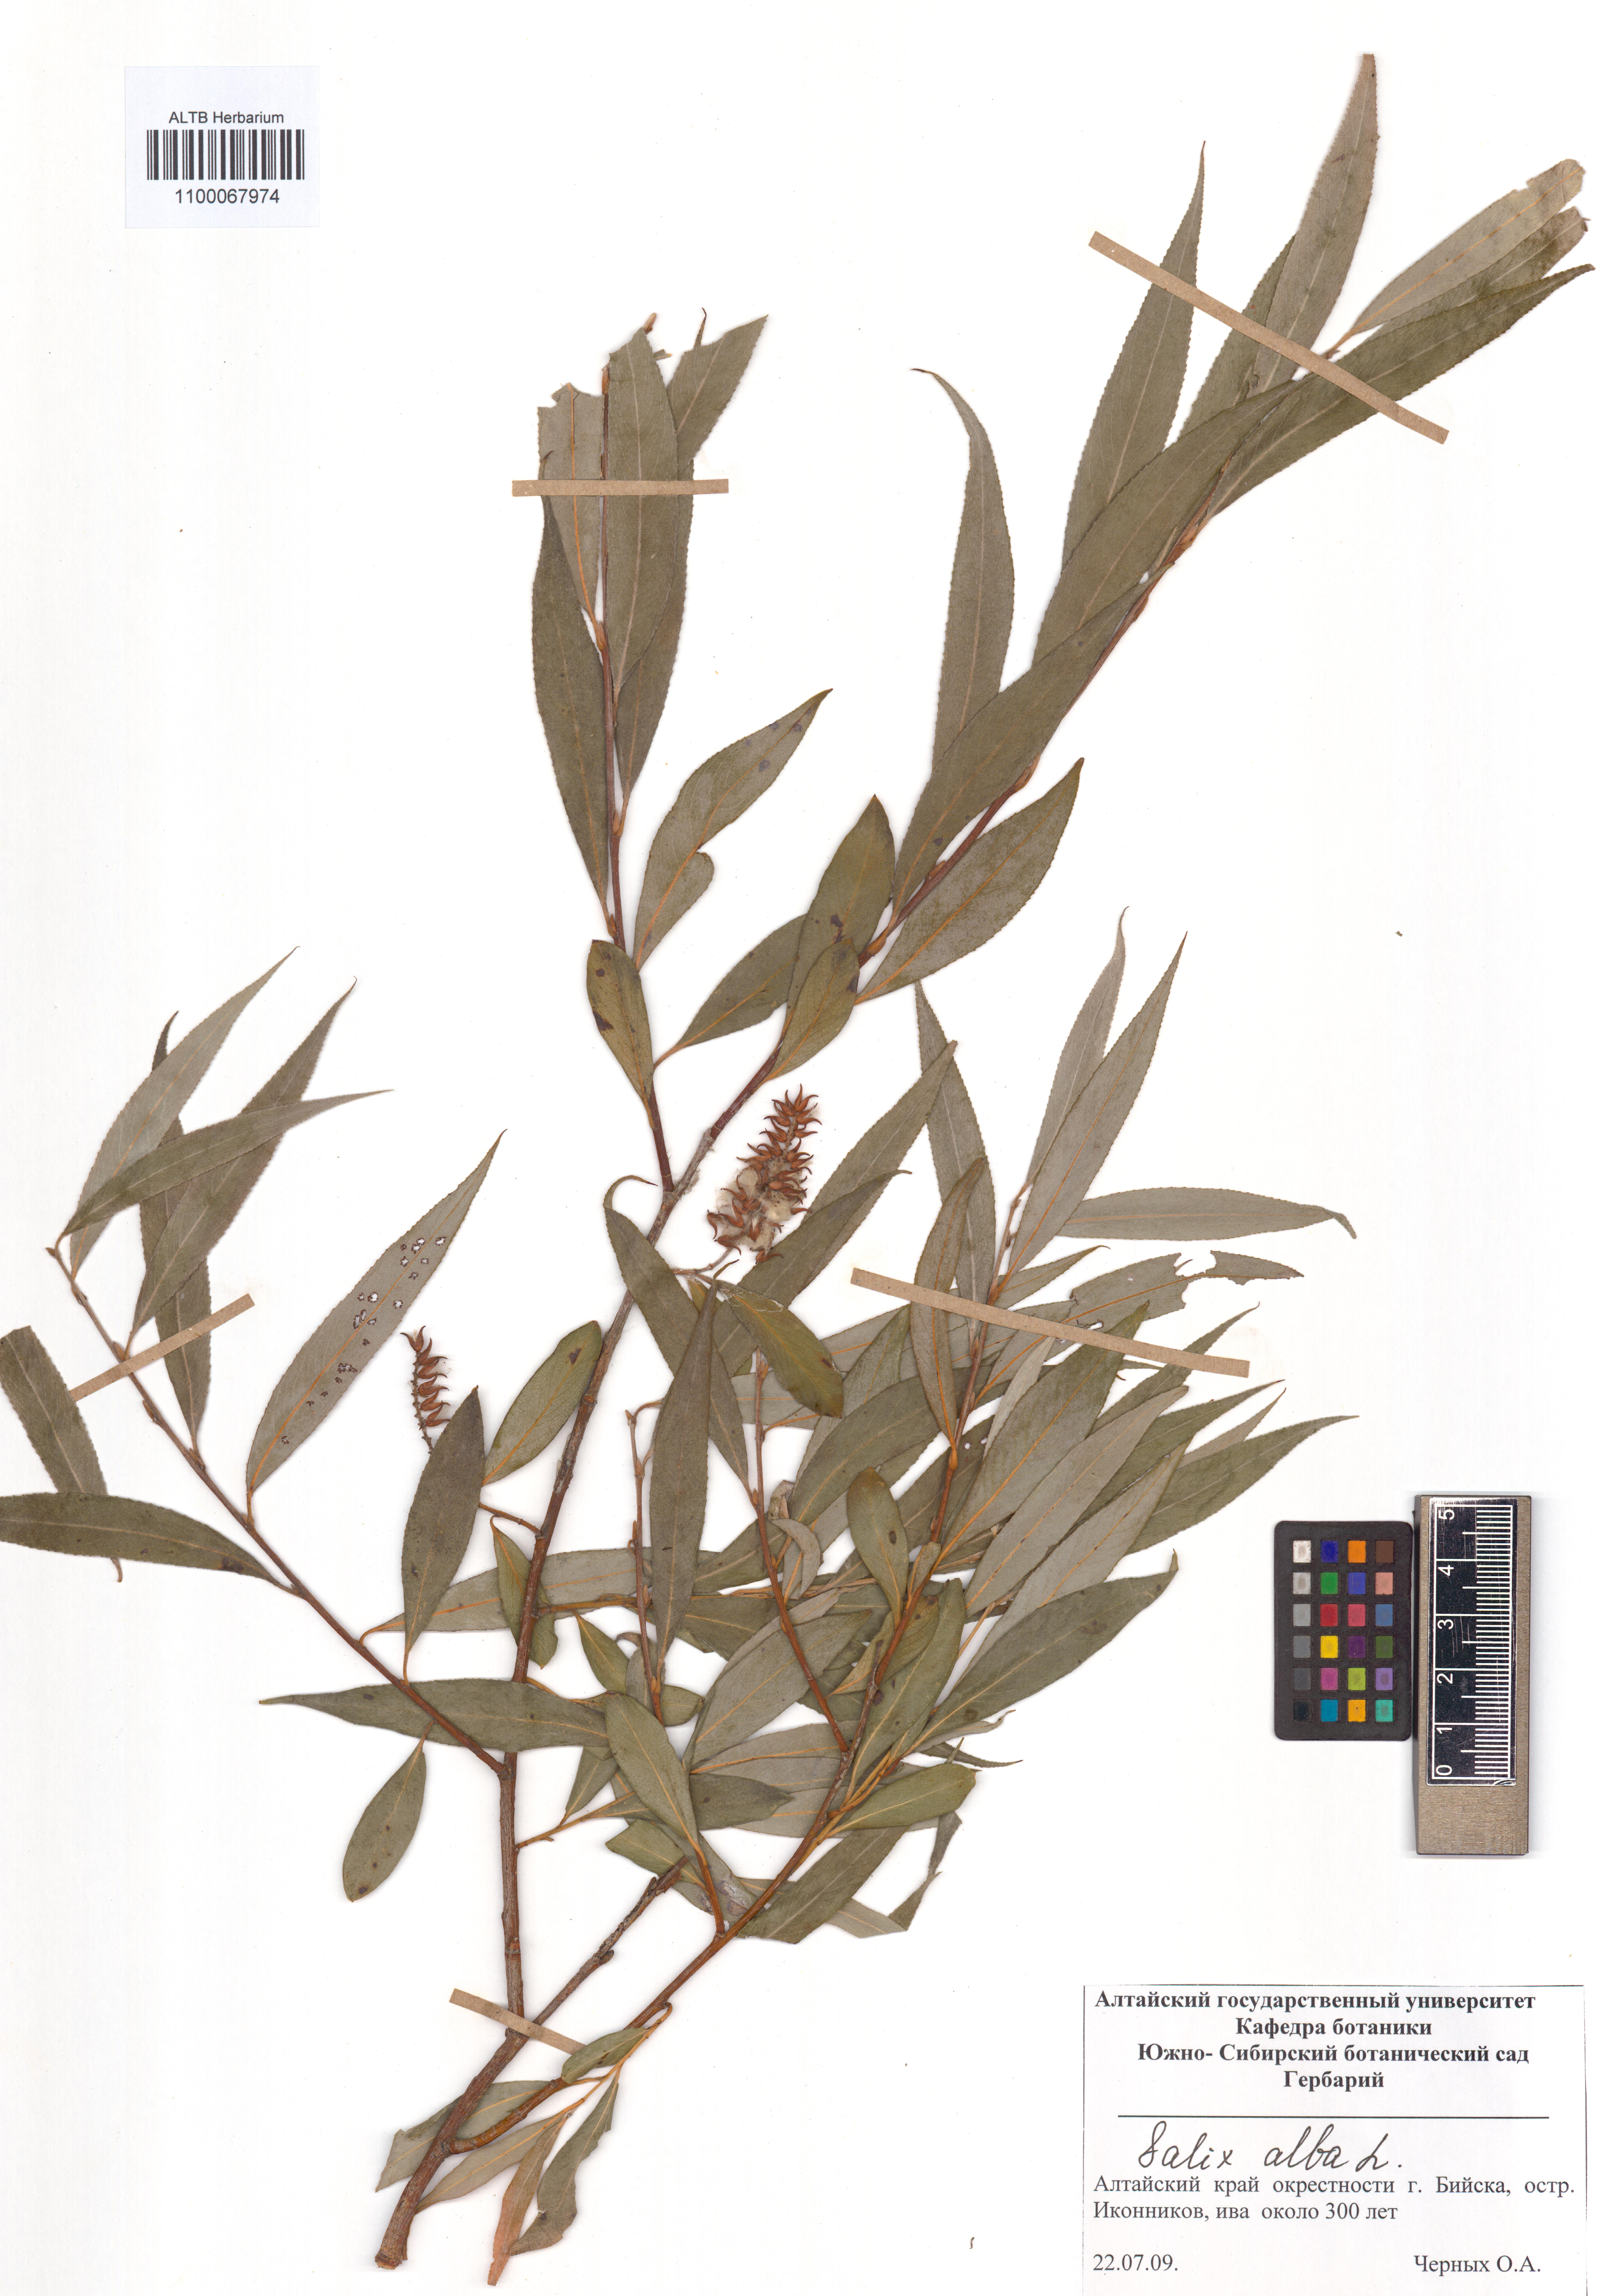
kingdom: Plantae
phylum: Tracheophyta
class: Magnoliopsida
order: Malpighiales
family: Salicaceae
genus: Salix
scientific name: Salix alba
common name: White willow
